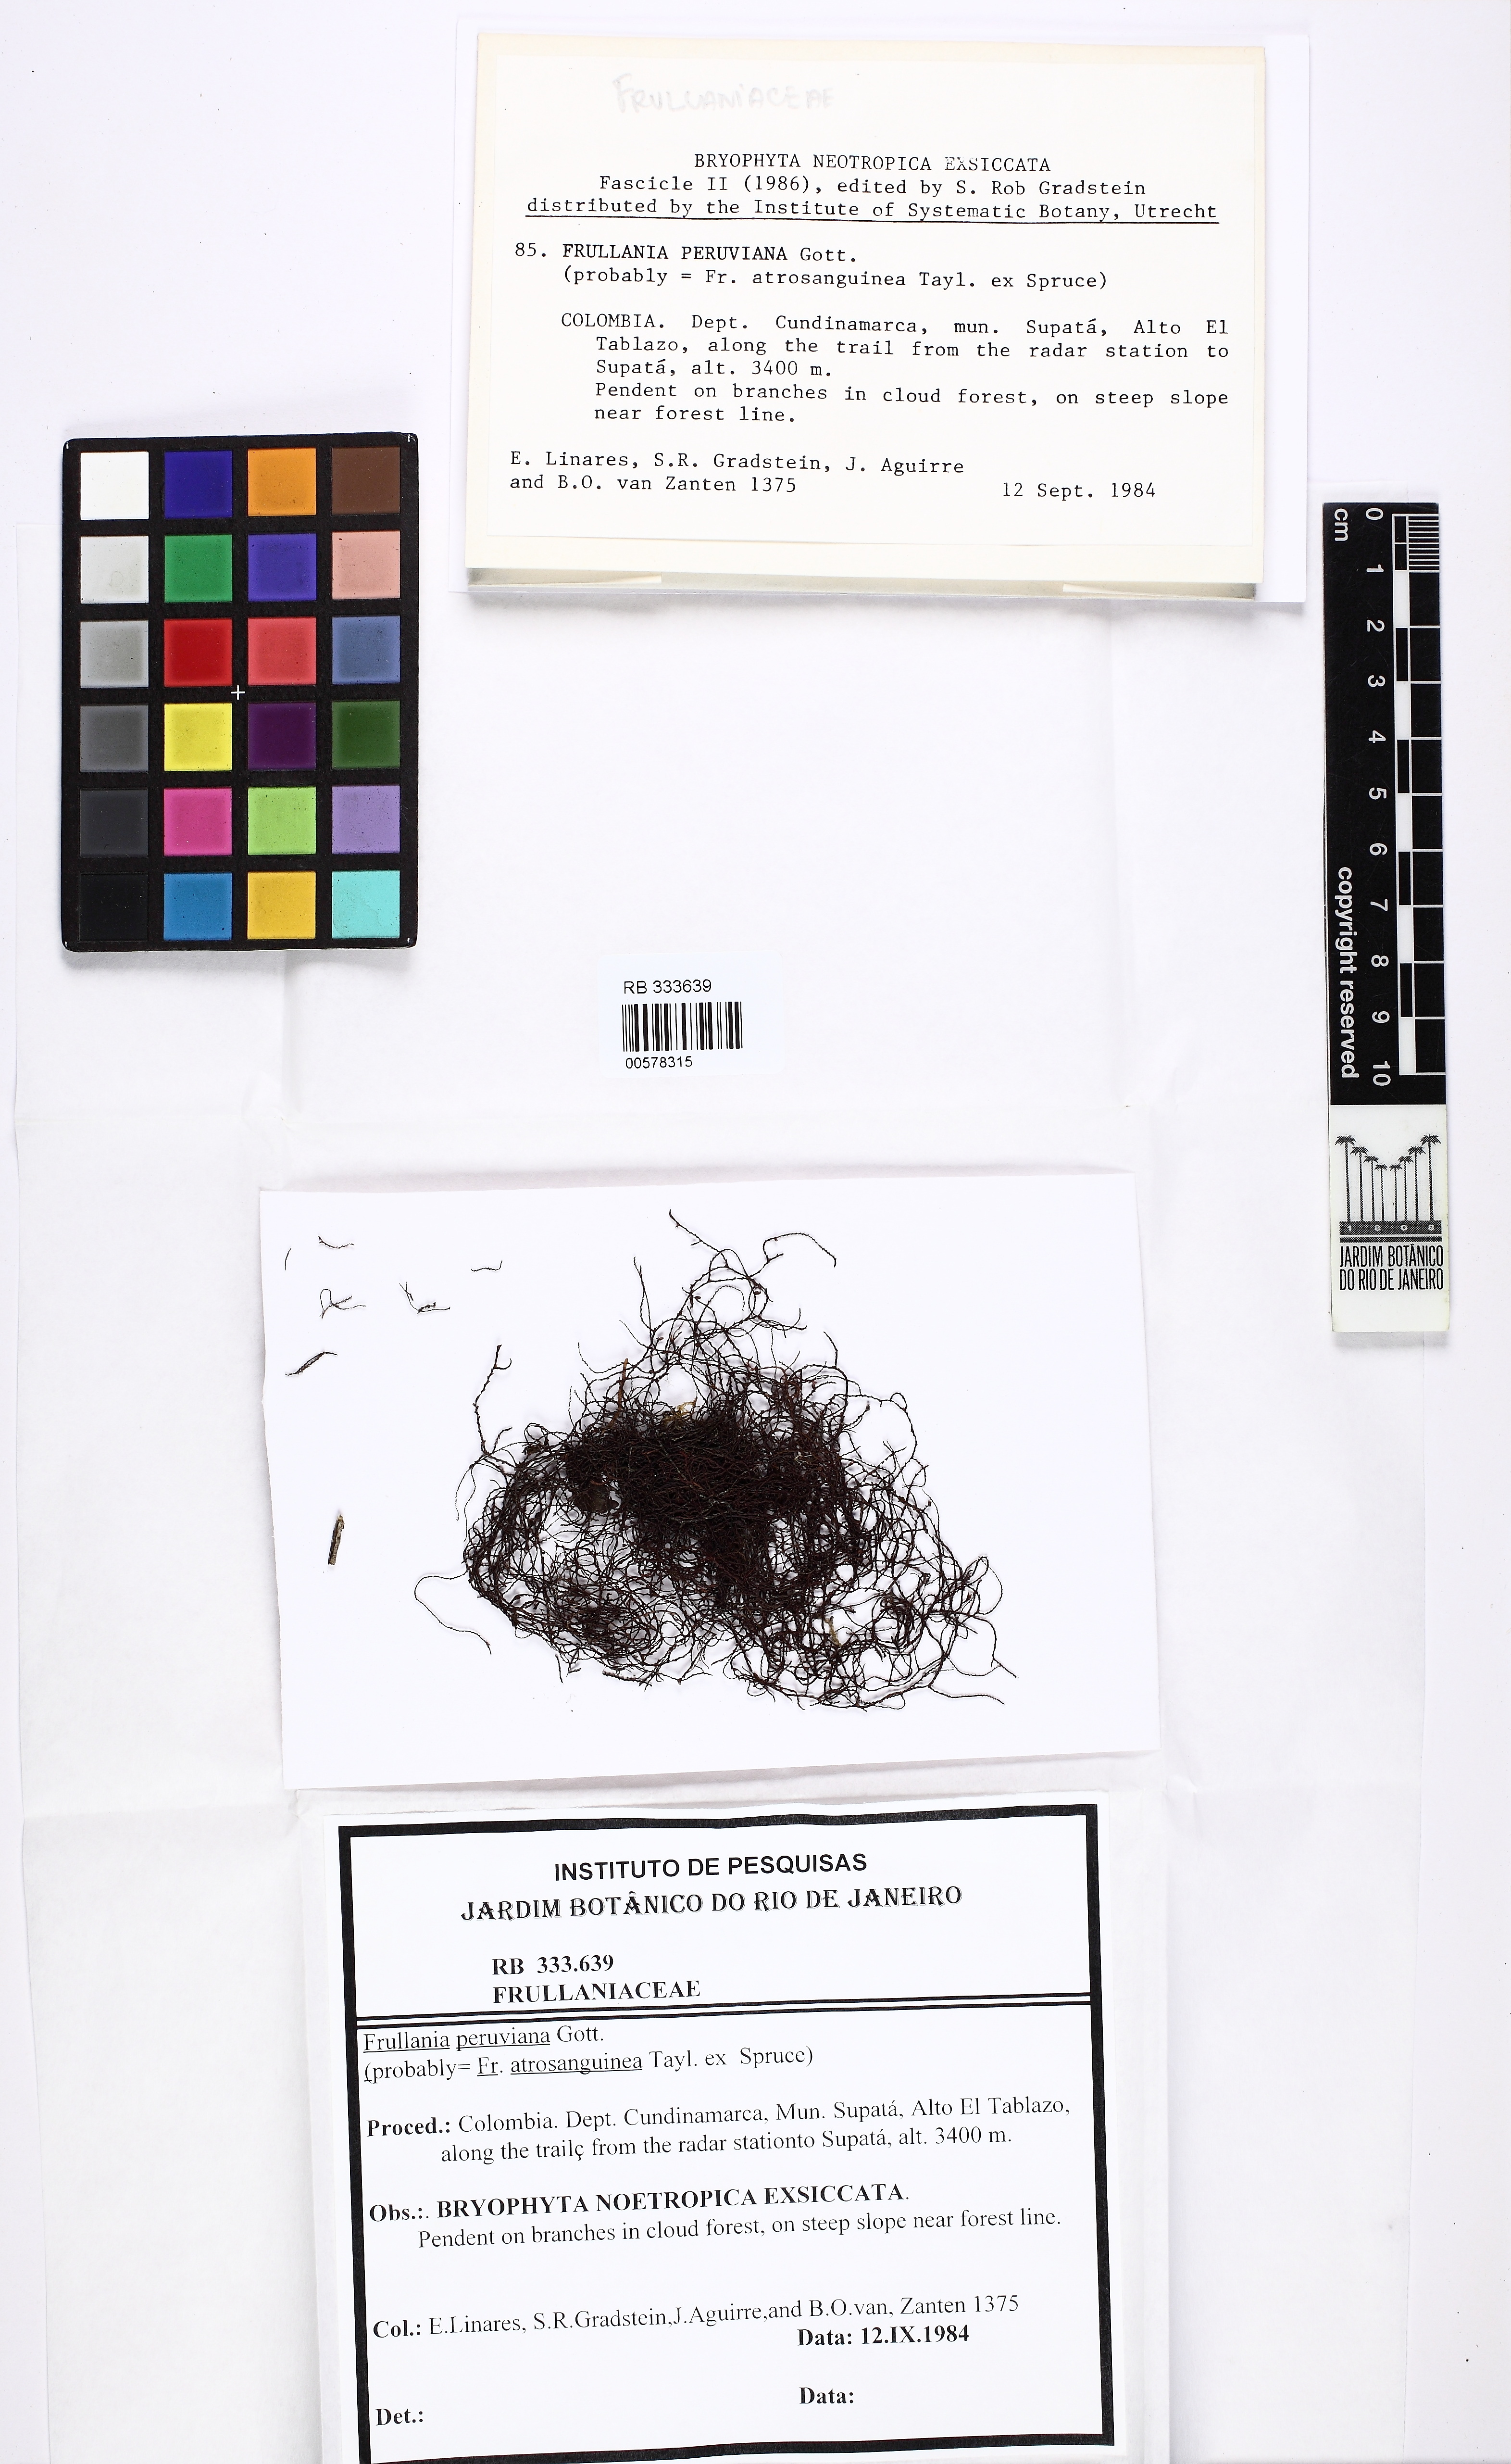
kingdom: Plantae
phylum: Marchantiophyta
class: Jungermanniopsida
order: Porellales
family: Frullaniaceae
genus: Frullania
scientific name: Frullania peruviana
